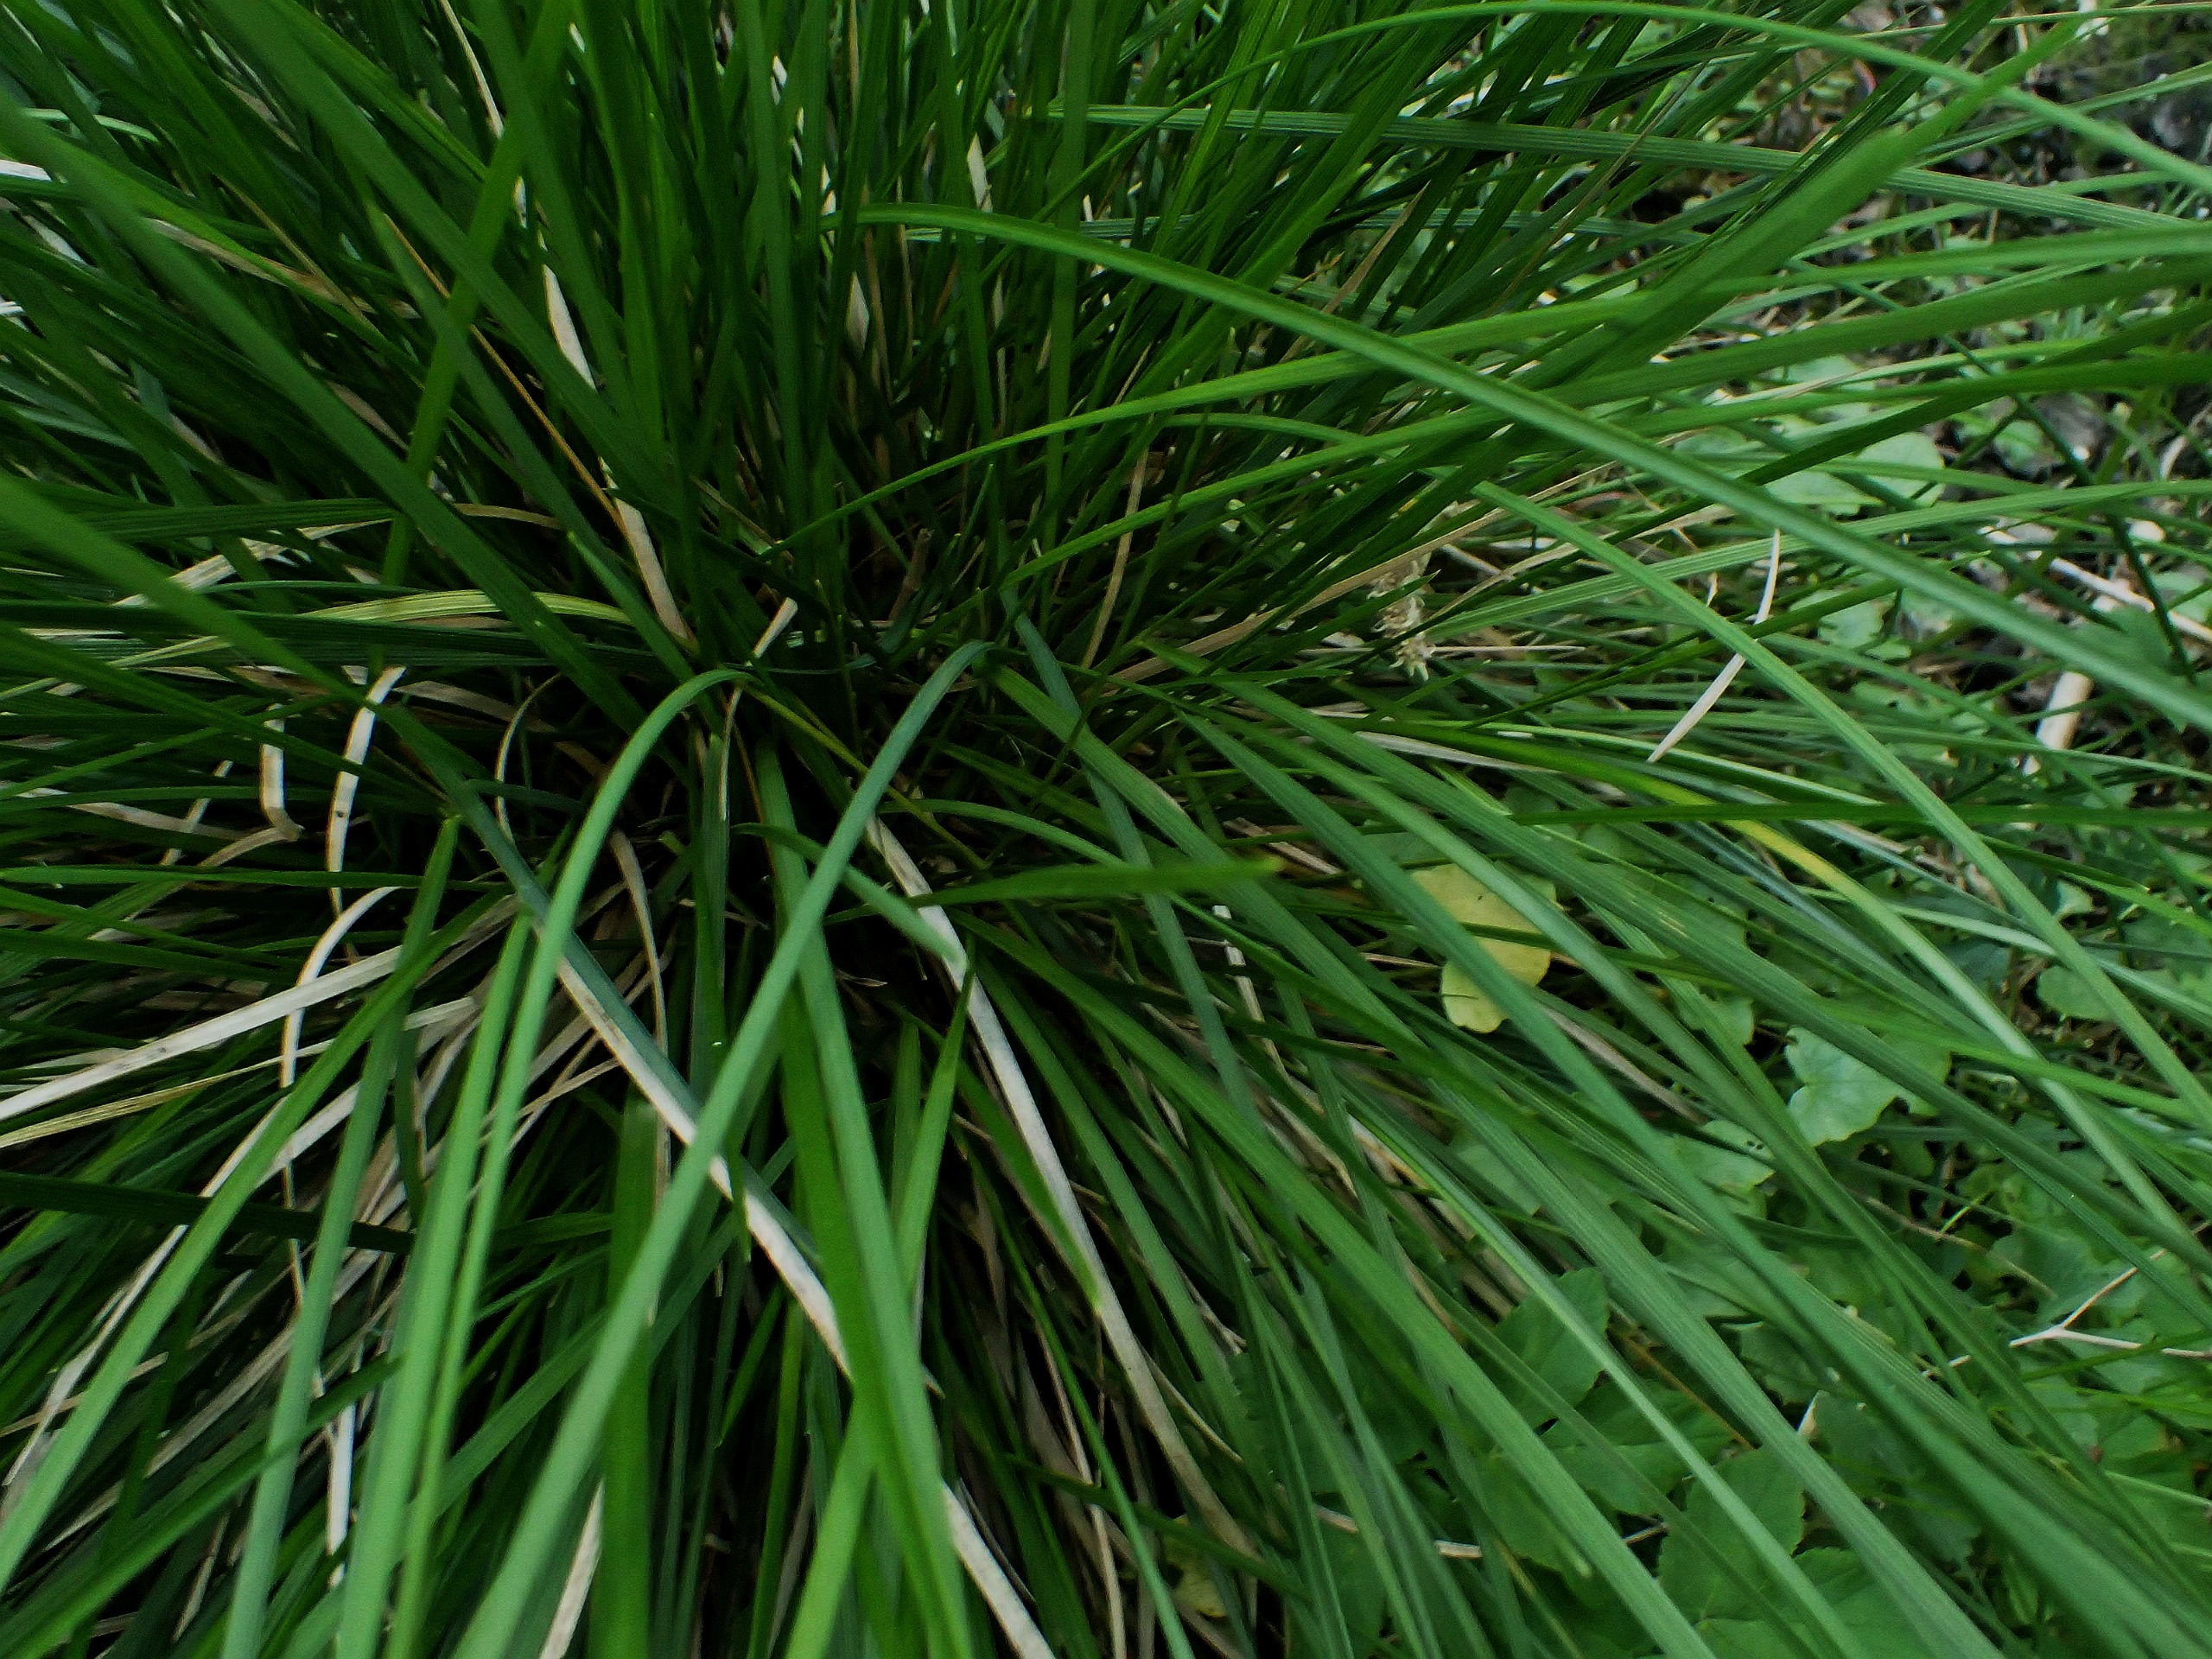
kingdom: Plantae
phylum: Tracheophyta
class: Liliopsida
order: Poales
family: Poaceae
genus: Deschampsia
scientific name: Deschampsia cespitosa
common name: Mose-bunke
